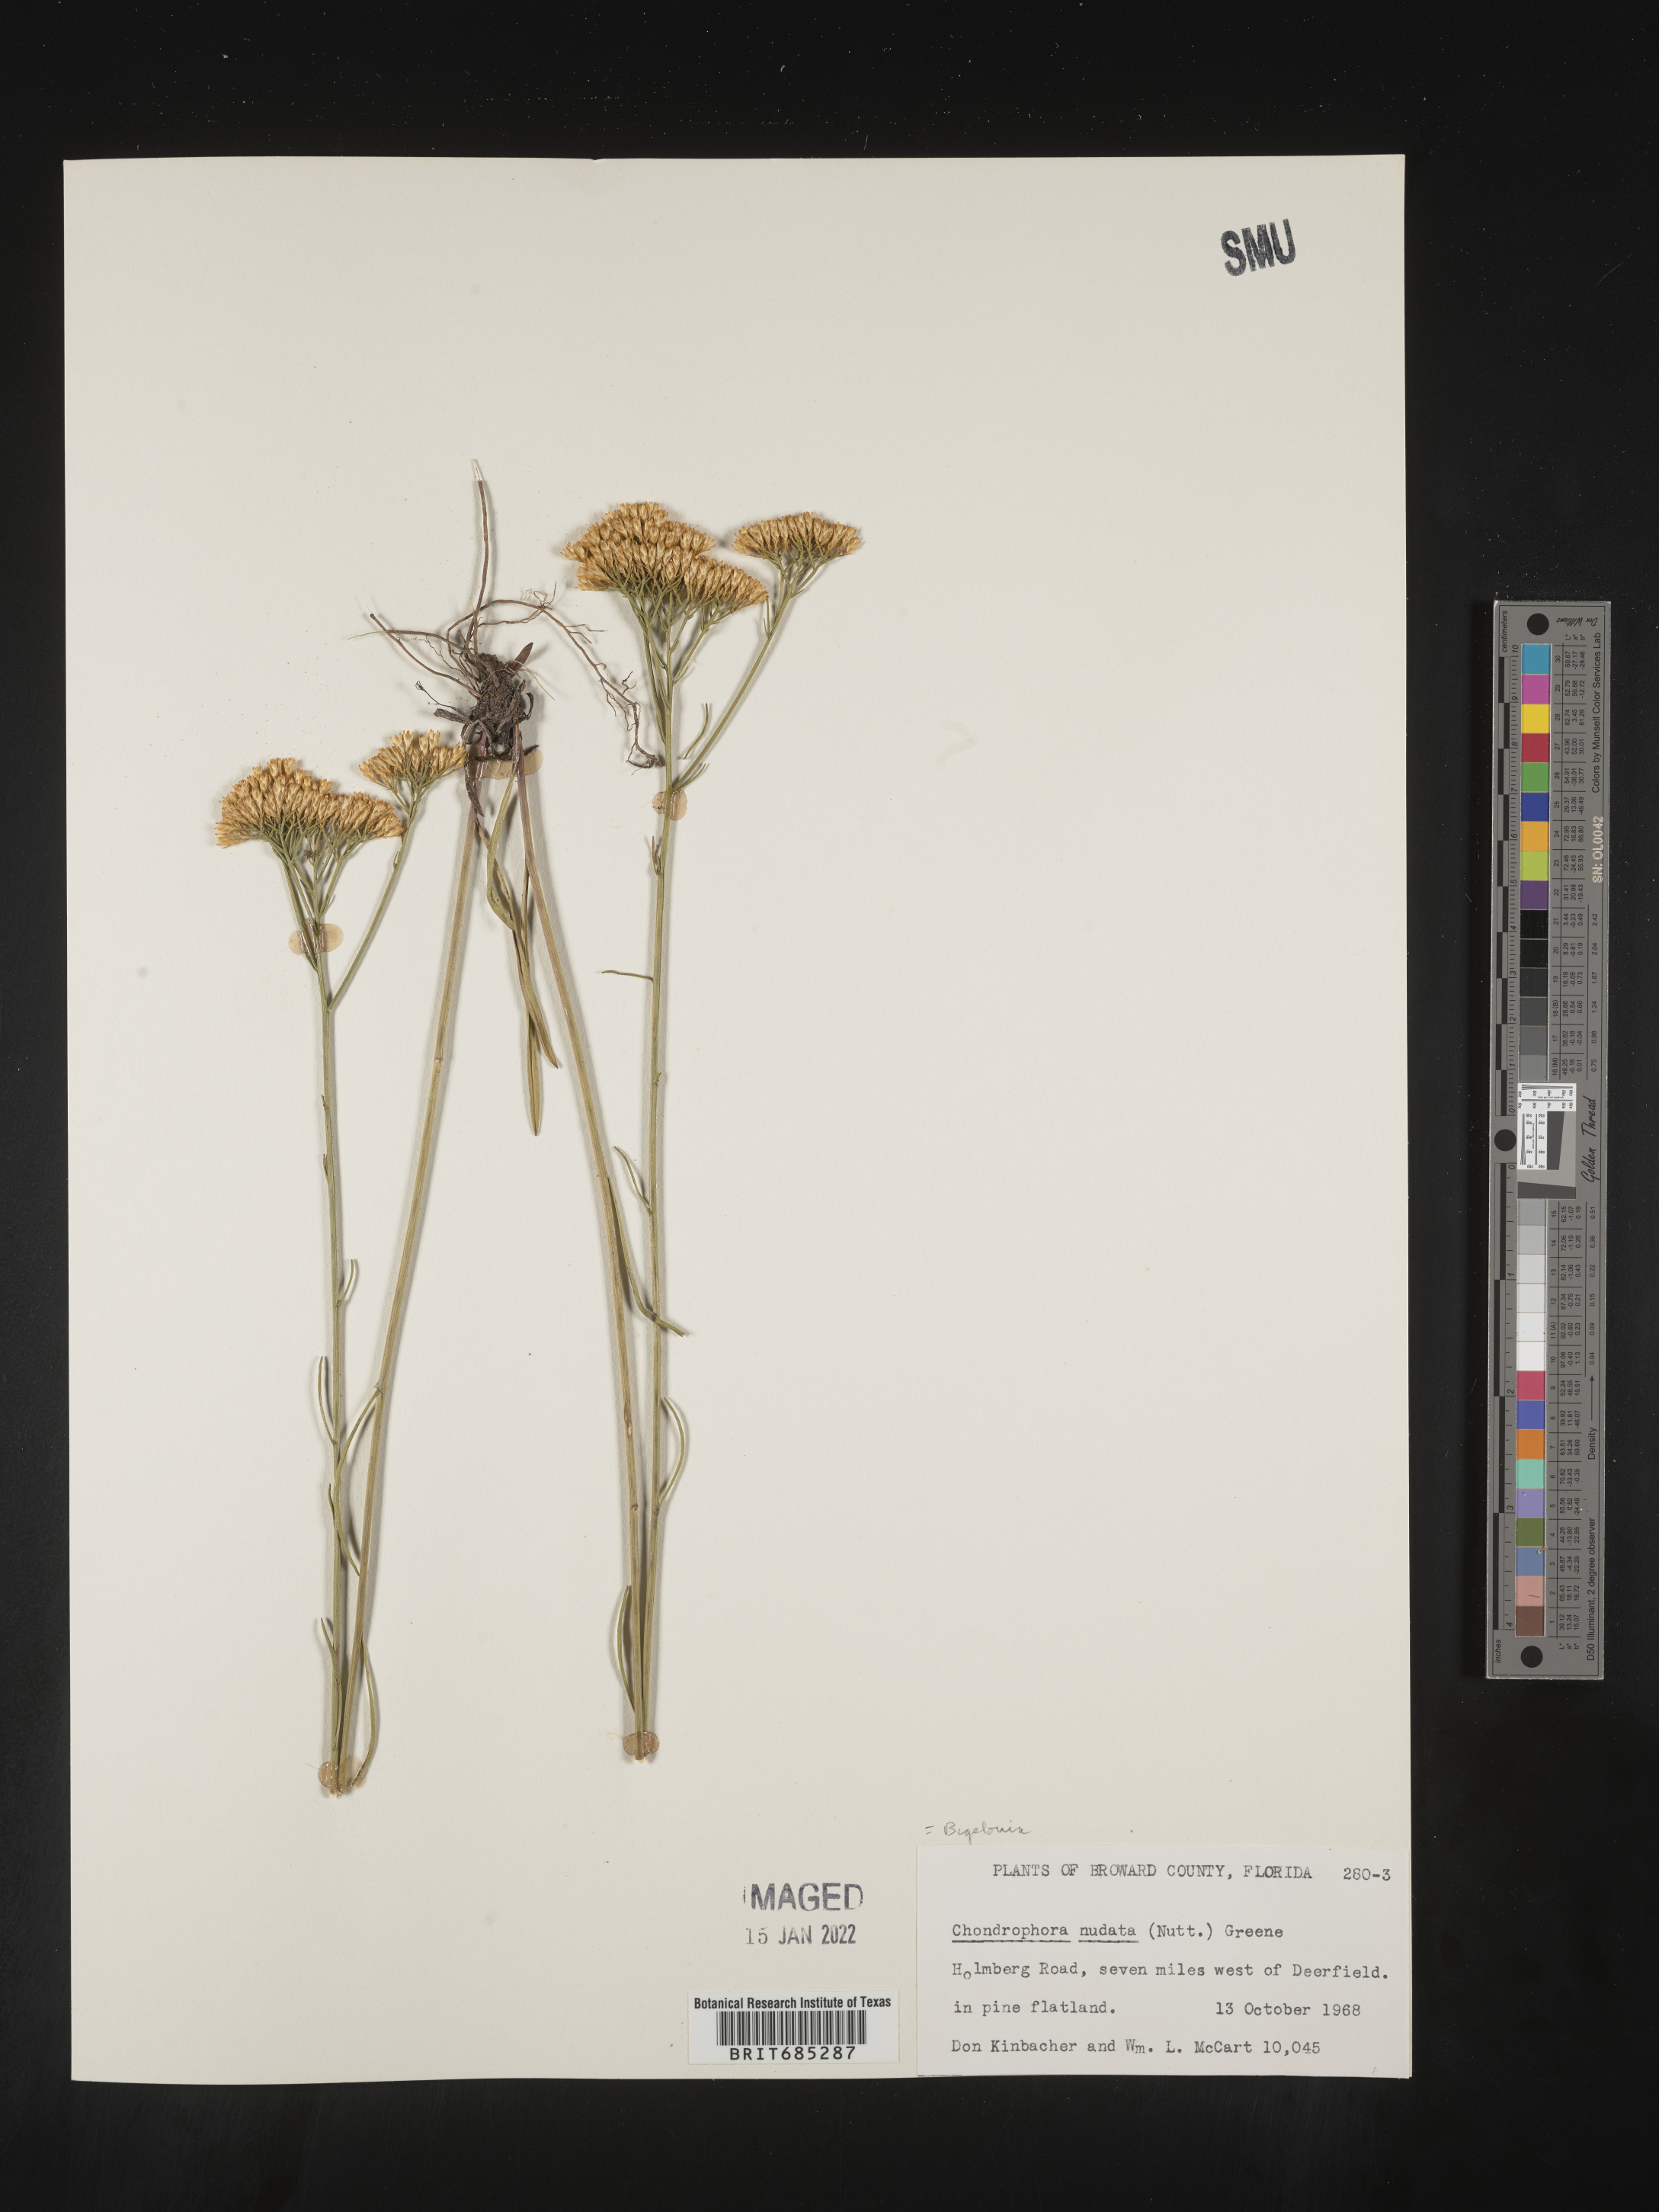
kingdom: Plantae
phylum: Tracheophyta
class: Magnoliopsida
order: Asterales
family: Asteraceae
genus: Bigelowia
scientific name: Bigelowia nudata
